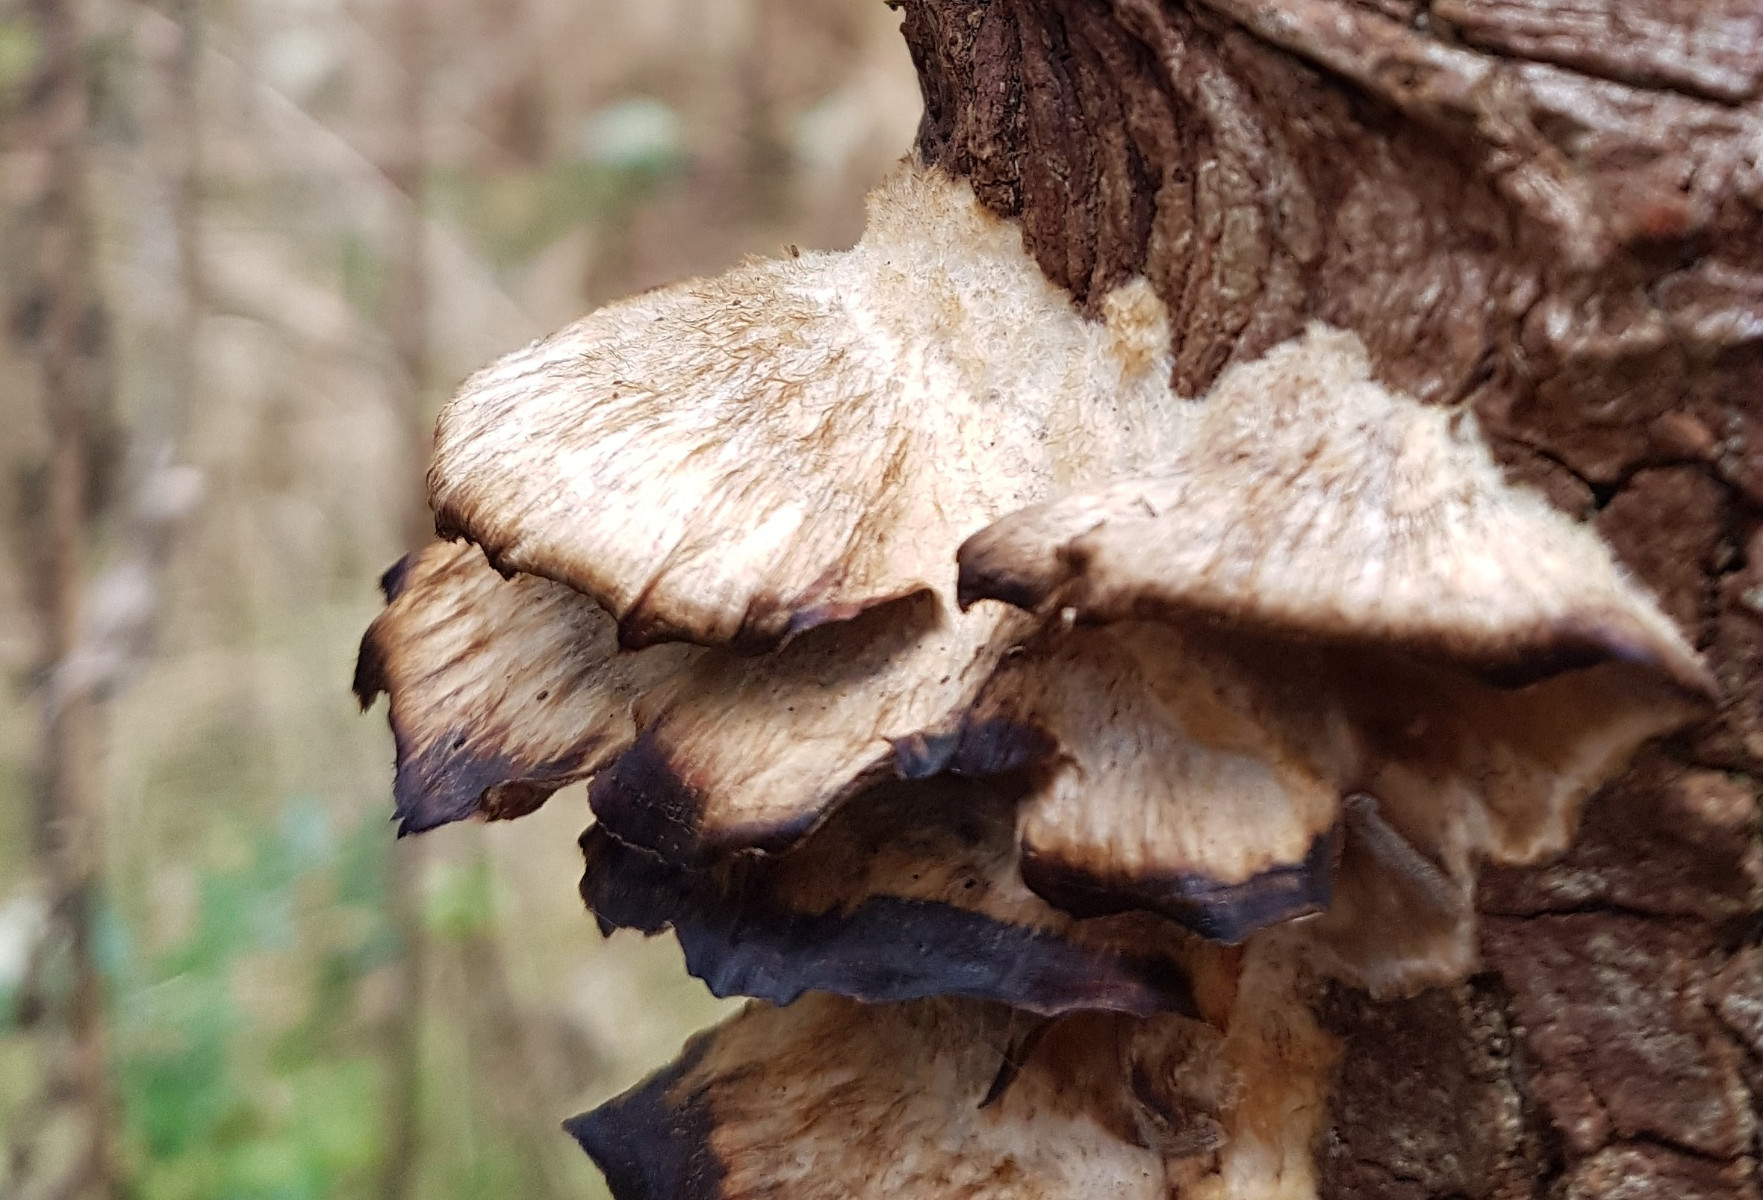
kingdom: Fungi
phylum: Basidiomycota
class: Agaricomycetes
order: Polyporales
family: Phanerochaetaceae
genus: Bjerkandera
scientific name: Bjerkandera adusta
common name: sveden sodporesvamp
